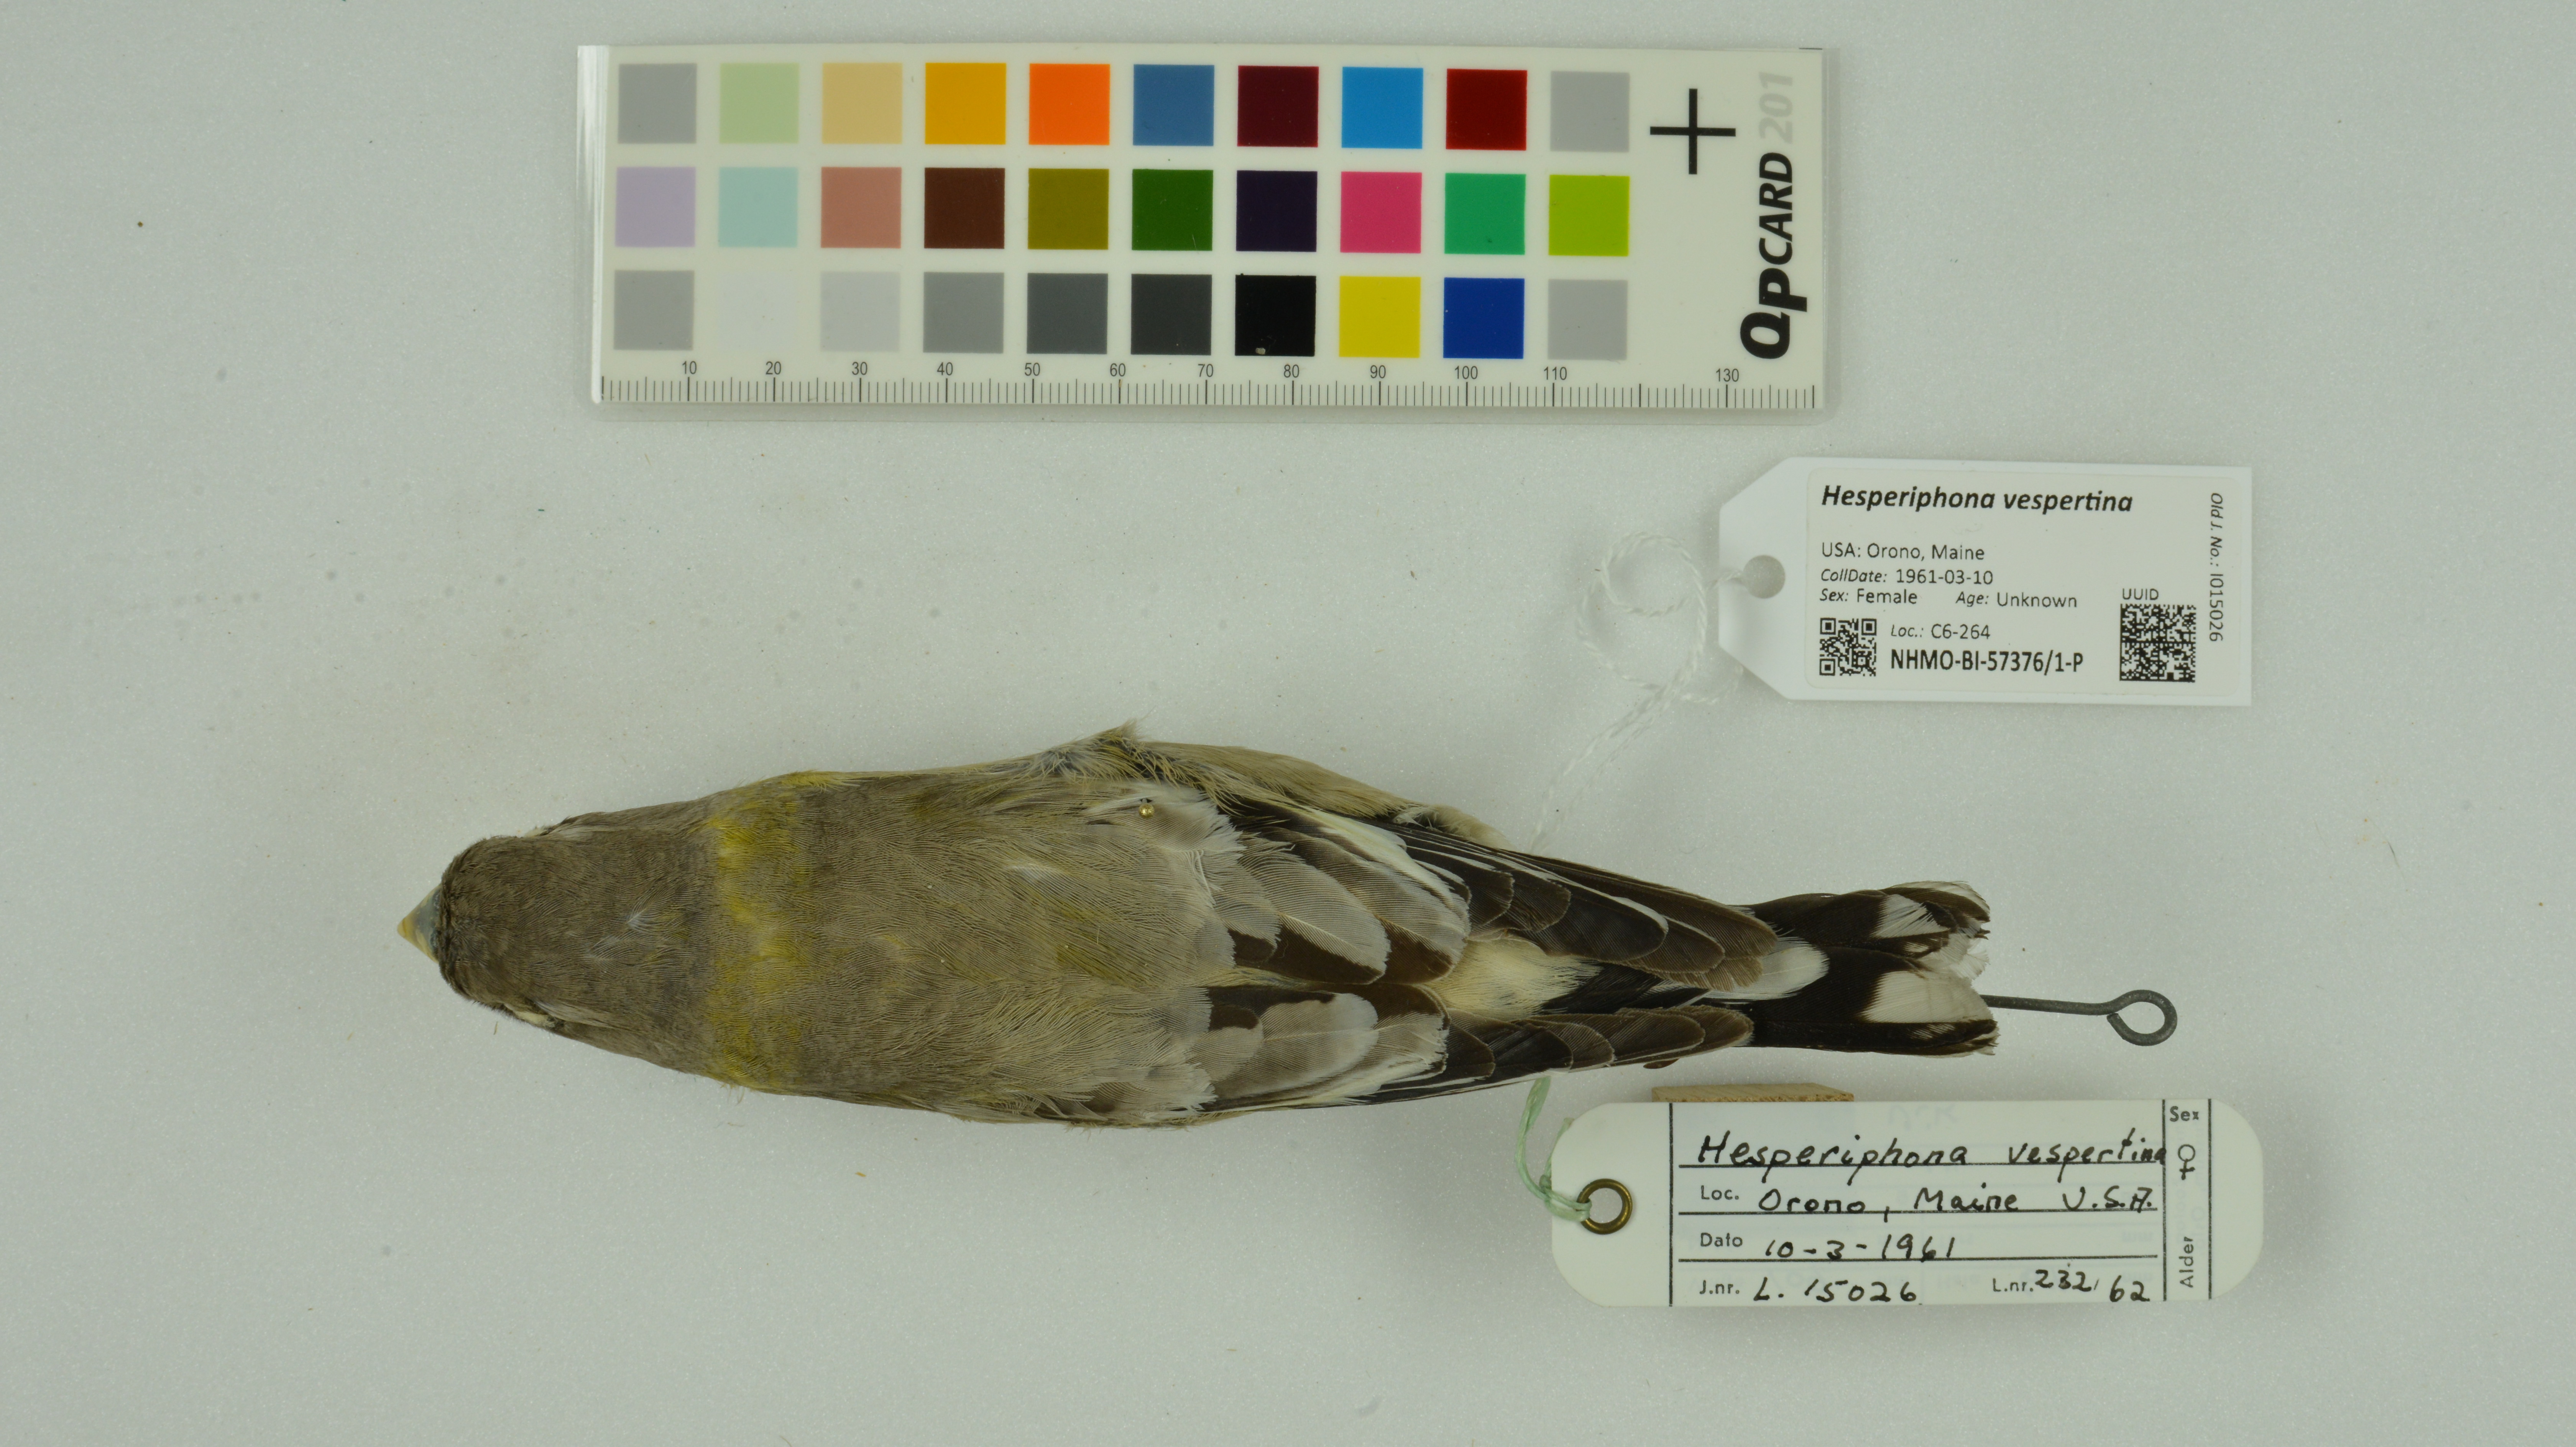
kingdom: Animalia
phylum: Chordata
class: Aves
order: Passeriformes
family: Fringillidae
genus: Hesperiphona
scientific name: Hesperiphona vespertina
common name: Evening grosbeak
